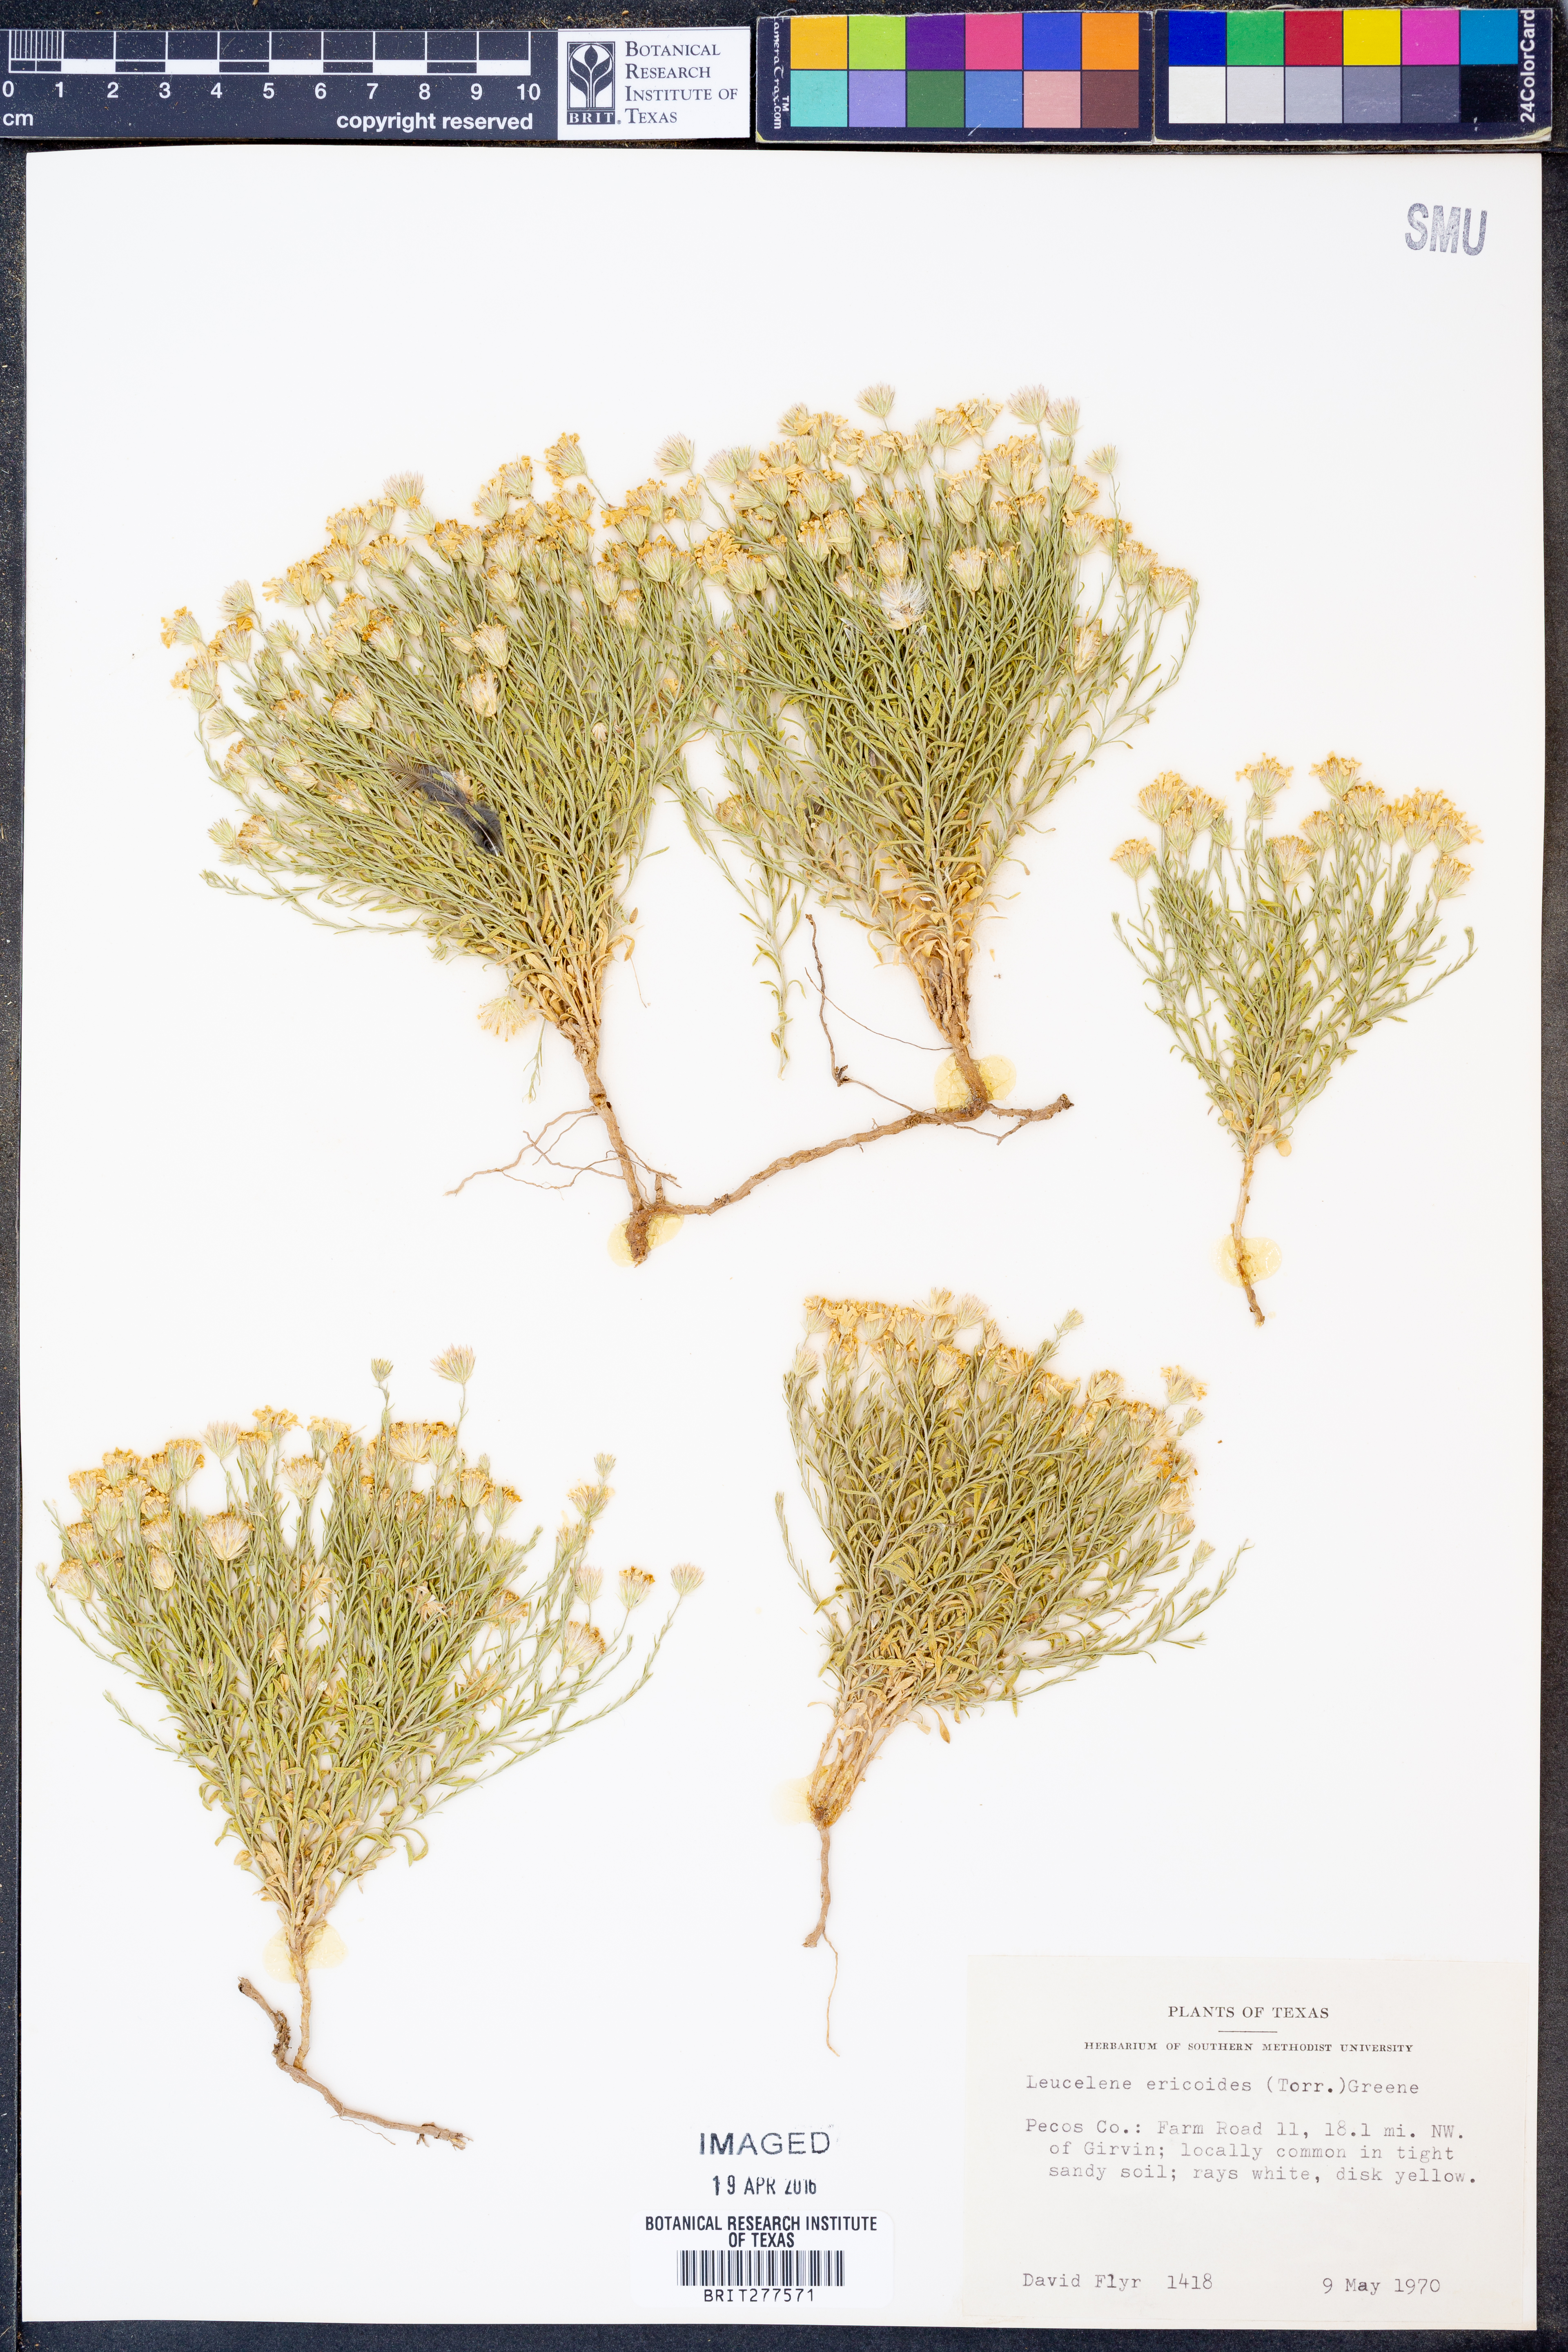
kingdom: Plantae
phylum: Tracheophyta
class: Magnoliopsida
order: Asterales
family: Asteraceae
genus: Chaetopappa
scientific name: Chaetopappa ericoides
